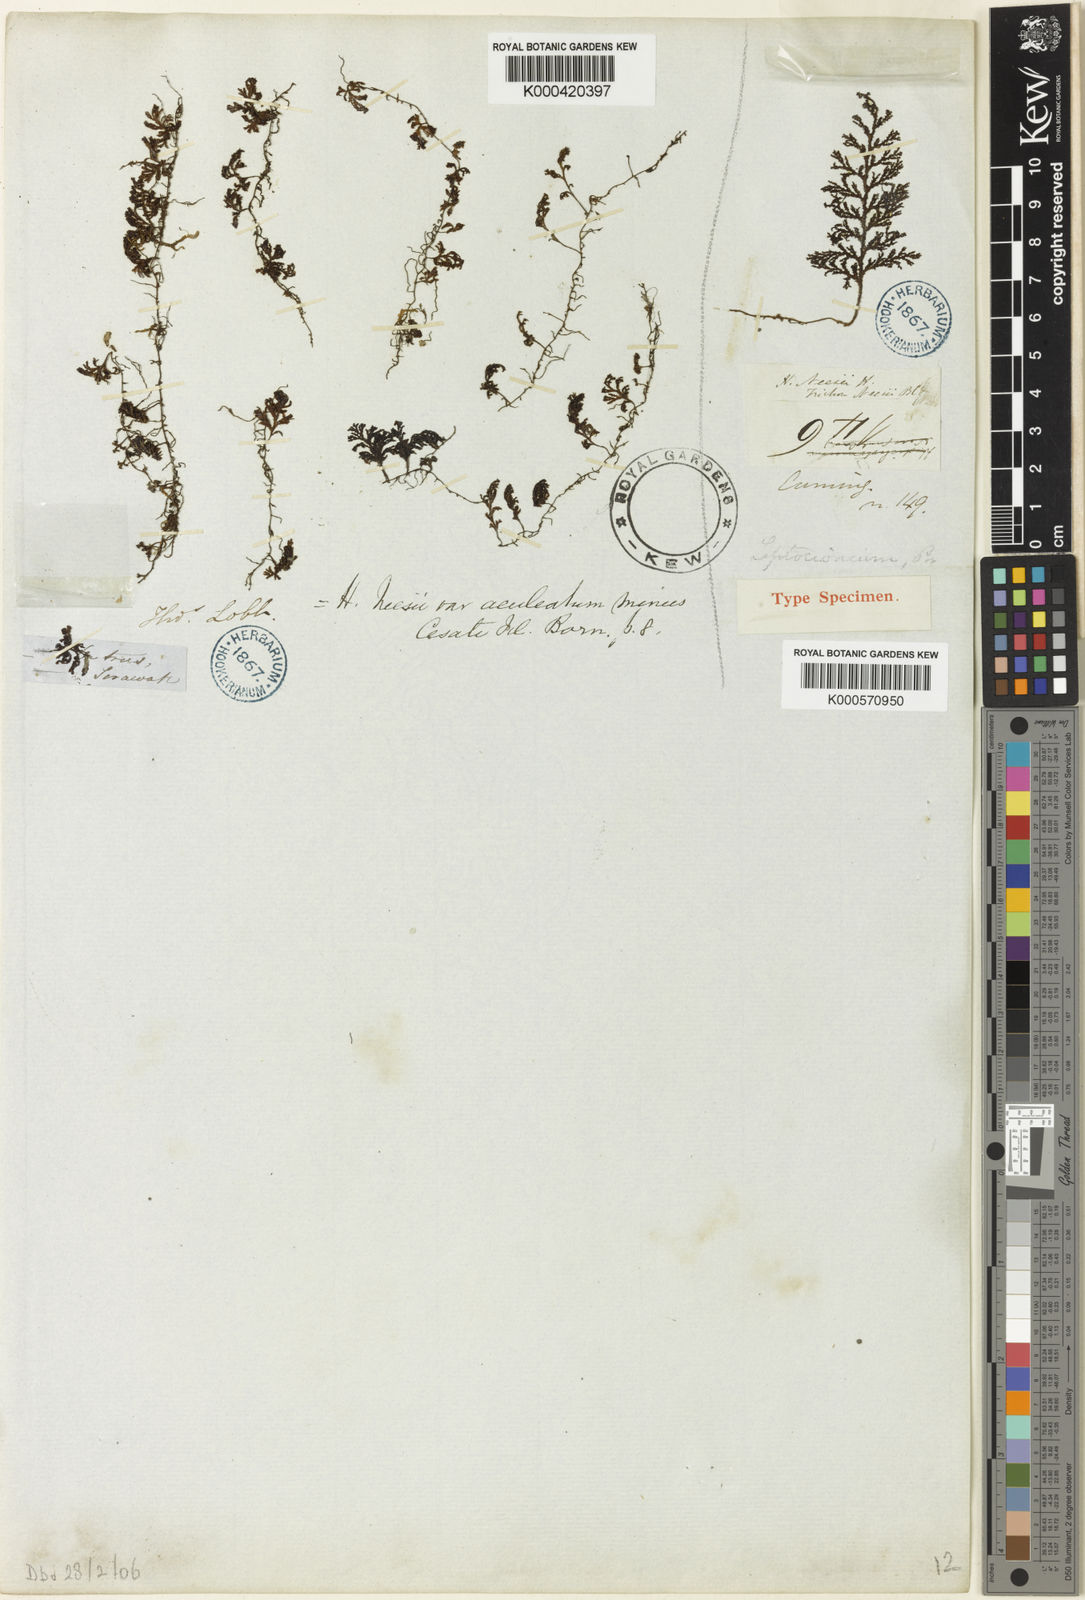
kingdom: Plantae
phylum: Tracheophyta
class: Polypodiopsida
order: Hymenophyllales
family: Hymenophyllaceae
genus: Hymenophyllum
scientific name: Hymenophyllum denticulatum
